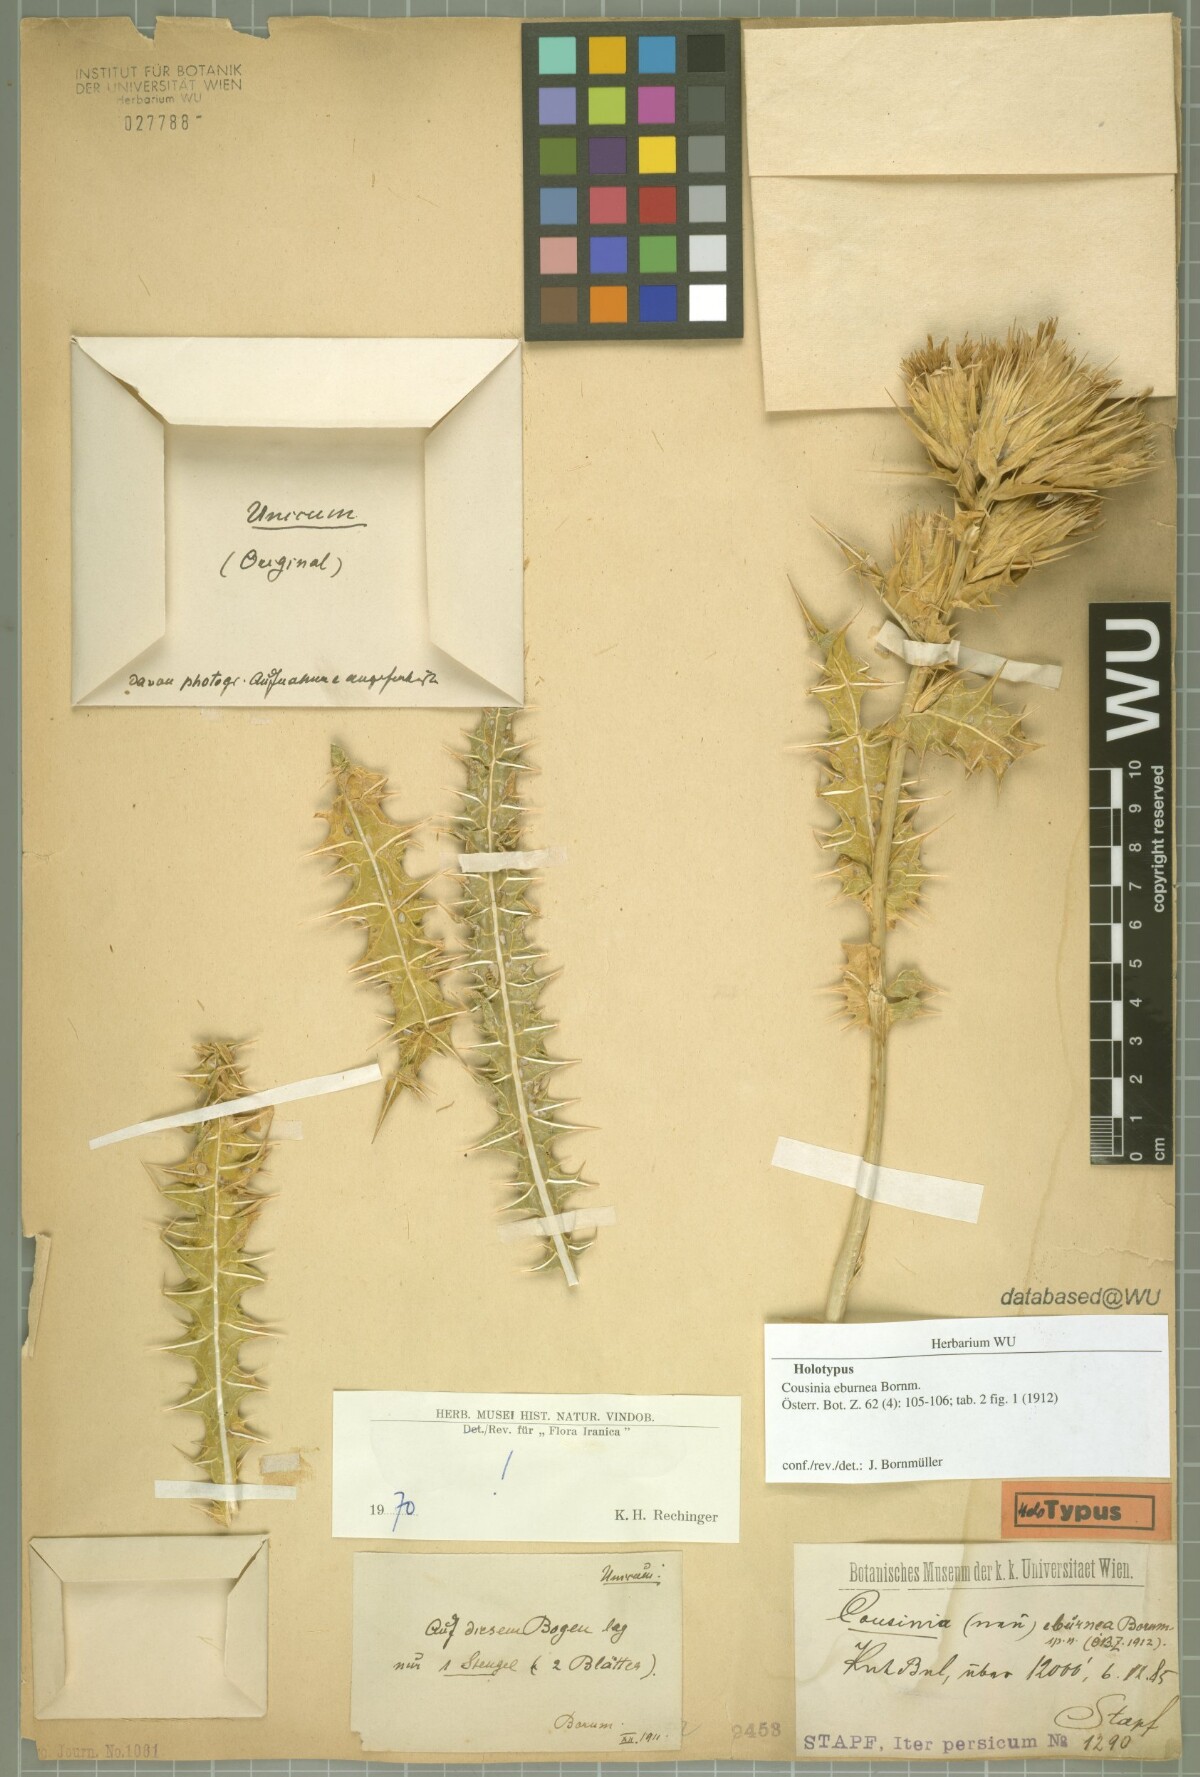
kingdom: Plantae
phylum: Tracheophyta
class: Magnoliopsida
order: Asterales
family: Asteraceae
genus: Cousinia
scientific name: Cousinia eburnea
